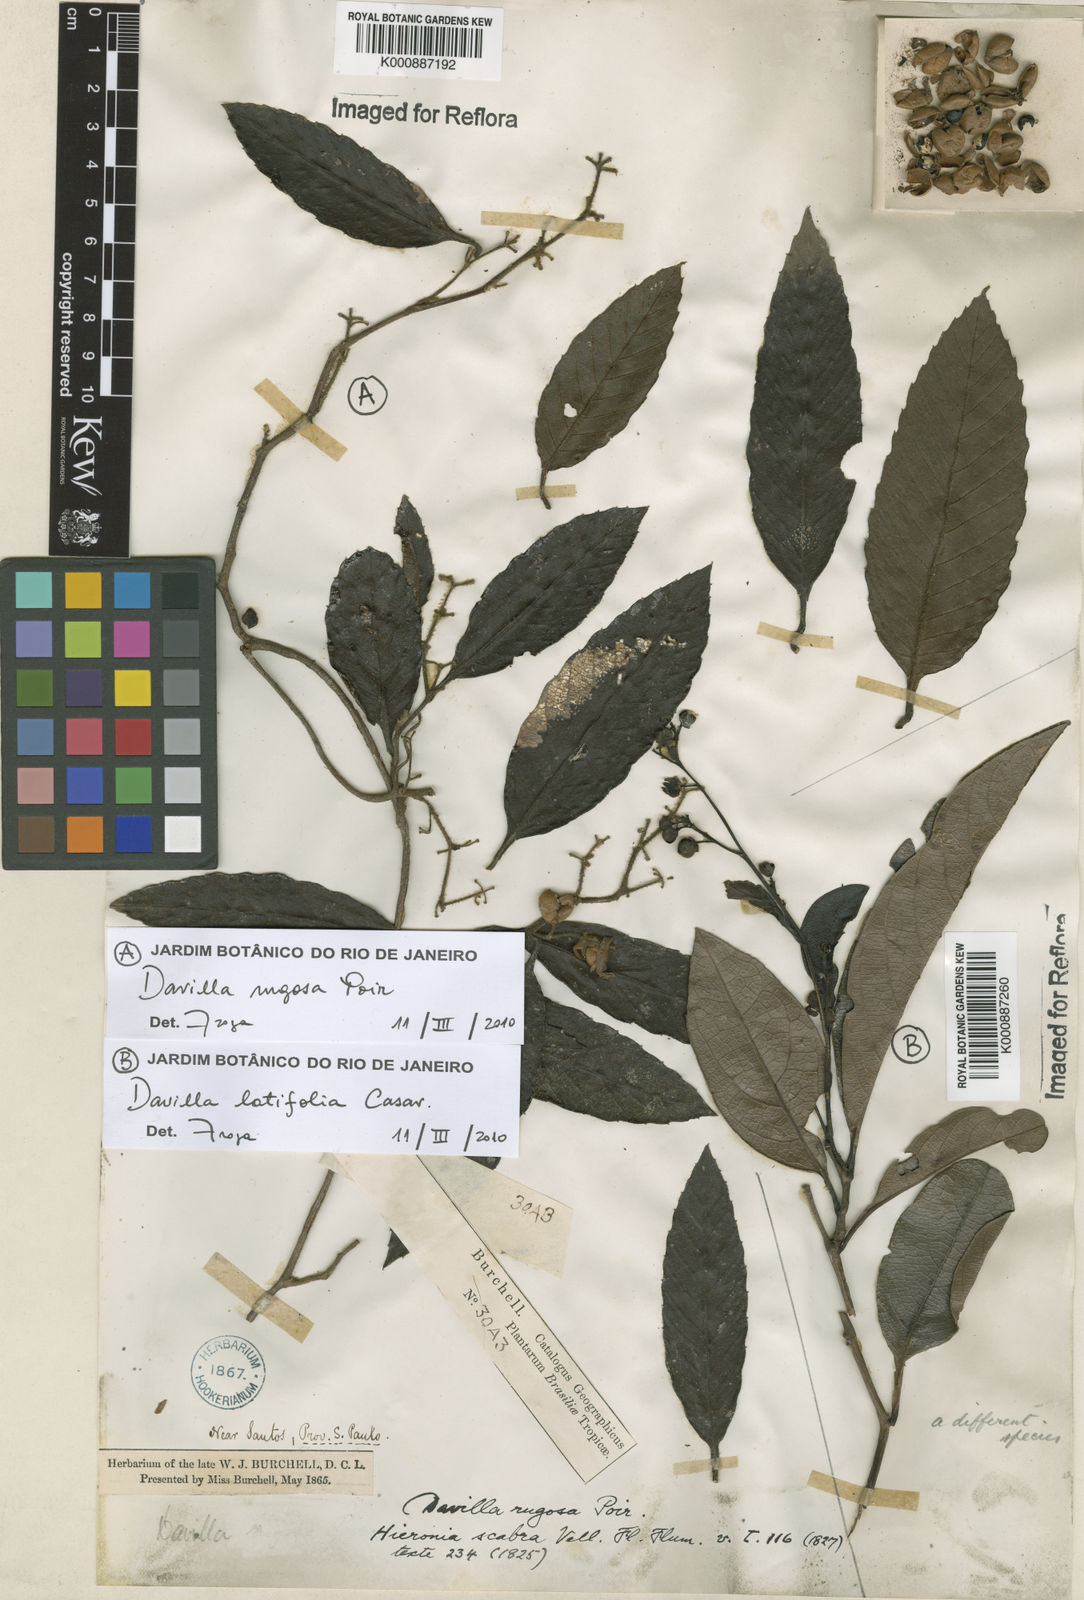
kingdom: Plantae
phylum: Tracheophyta
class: Magnoliopsida
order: Dilleniales
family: Dilleniaceae
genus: Davilla
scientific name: Davilla rugosa
